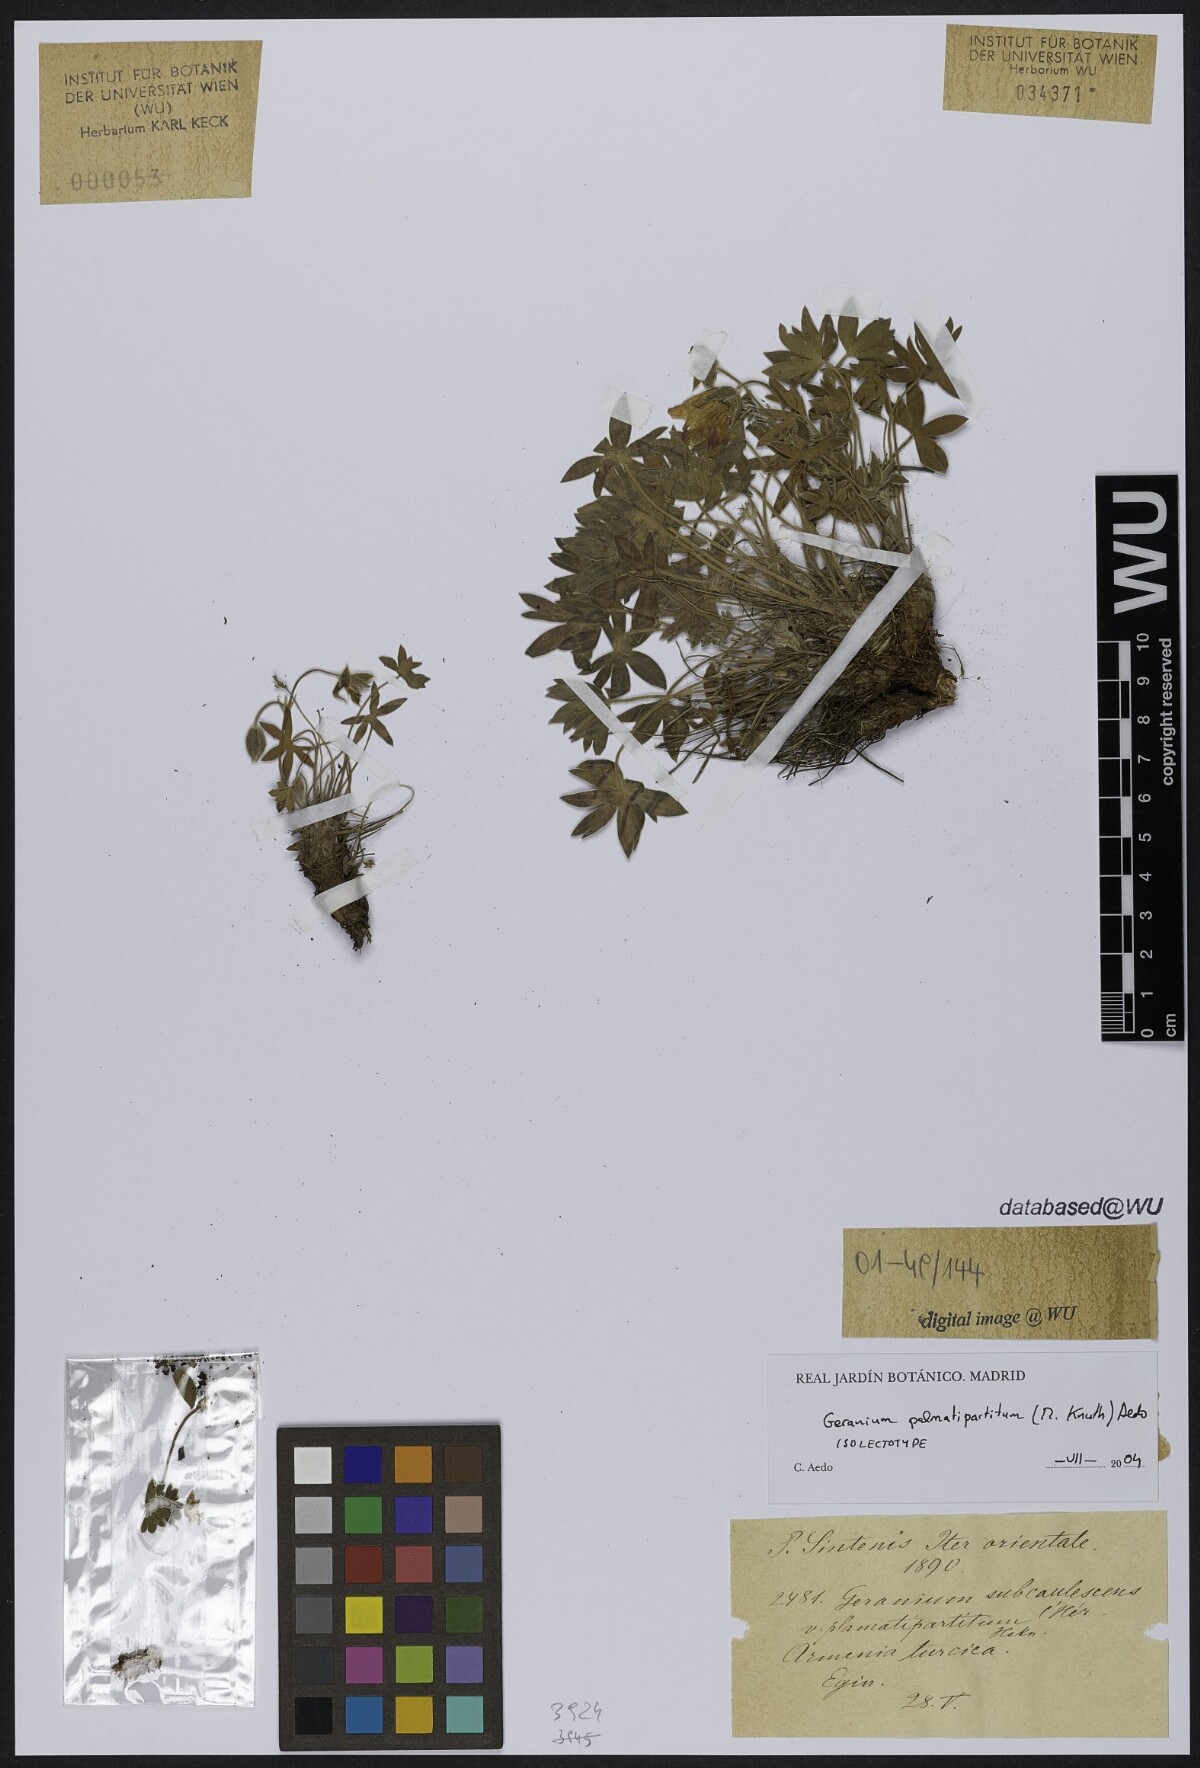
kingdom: Plantae
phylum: Tracheophyta
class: Magnoliopsida
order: Geraniales
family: Geraniaceae
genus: Geranium
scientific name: Geranium palmatipartitum
